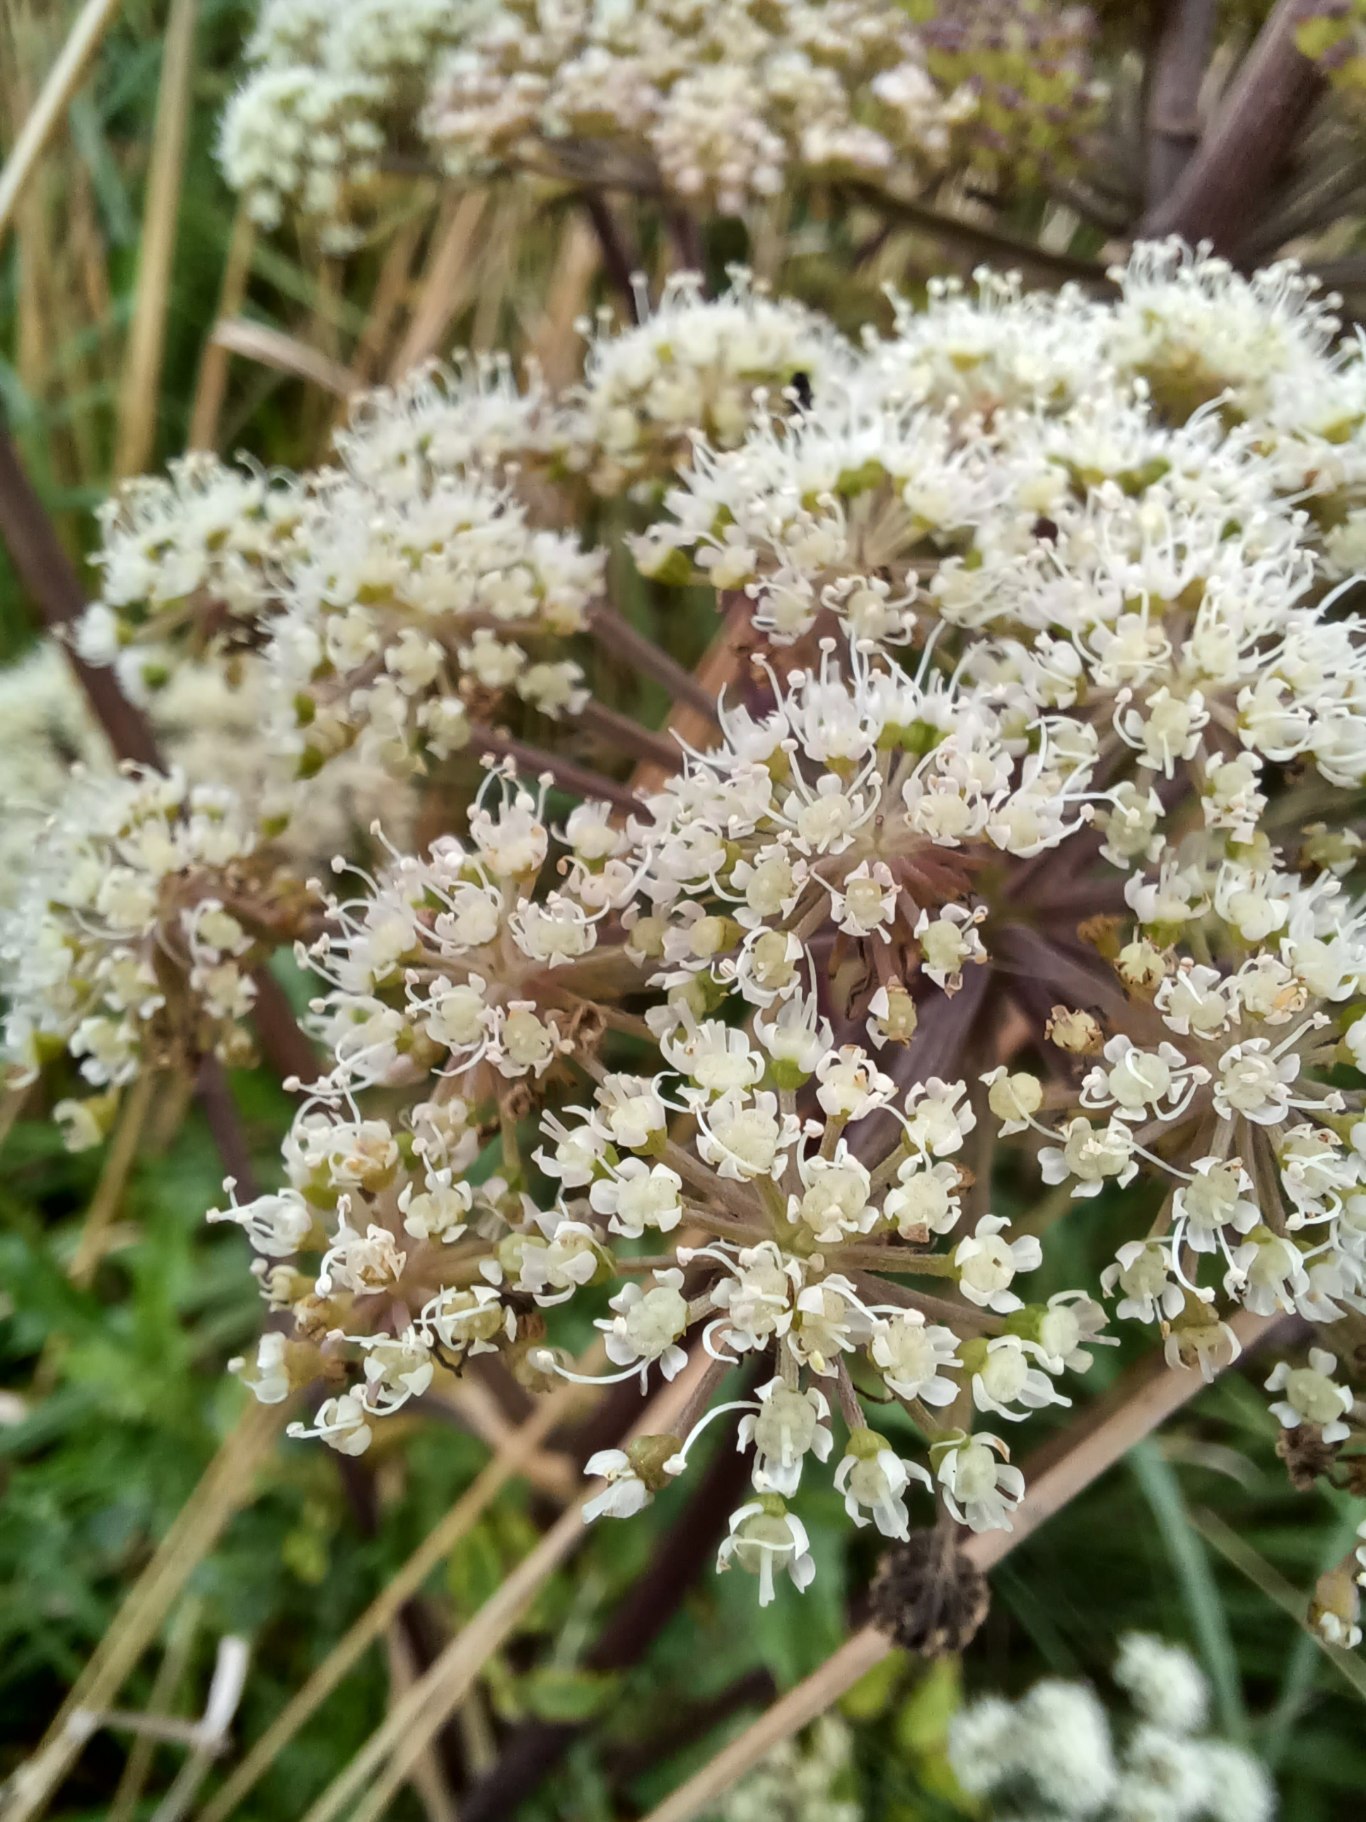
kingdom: Plantae
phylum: Tracheophyta
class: Magnoliopsida
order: Apiales
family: Apiaceae
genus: Angelica
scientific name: Angelica sylvestris
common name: Angelik
